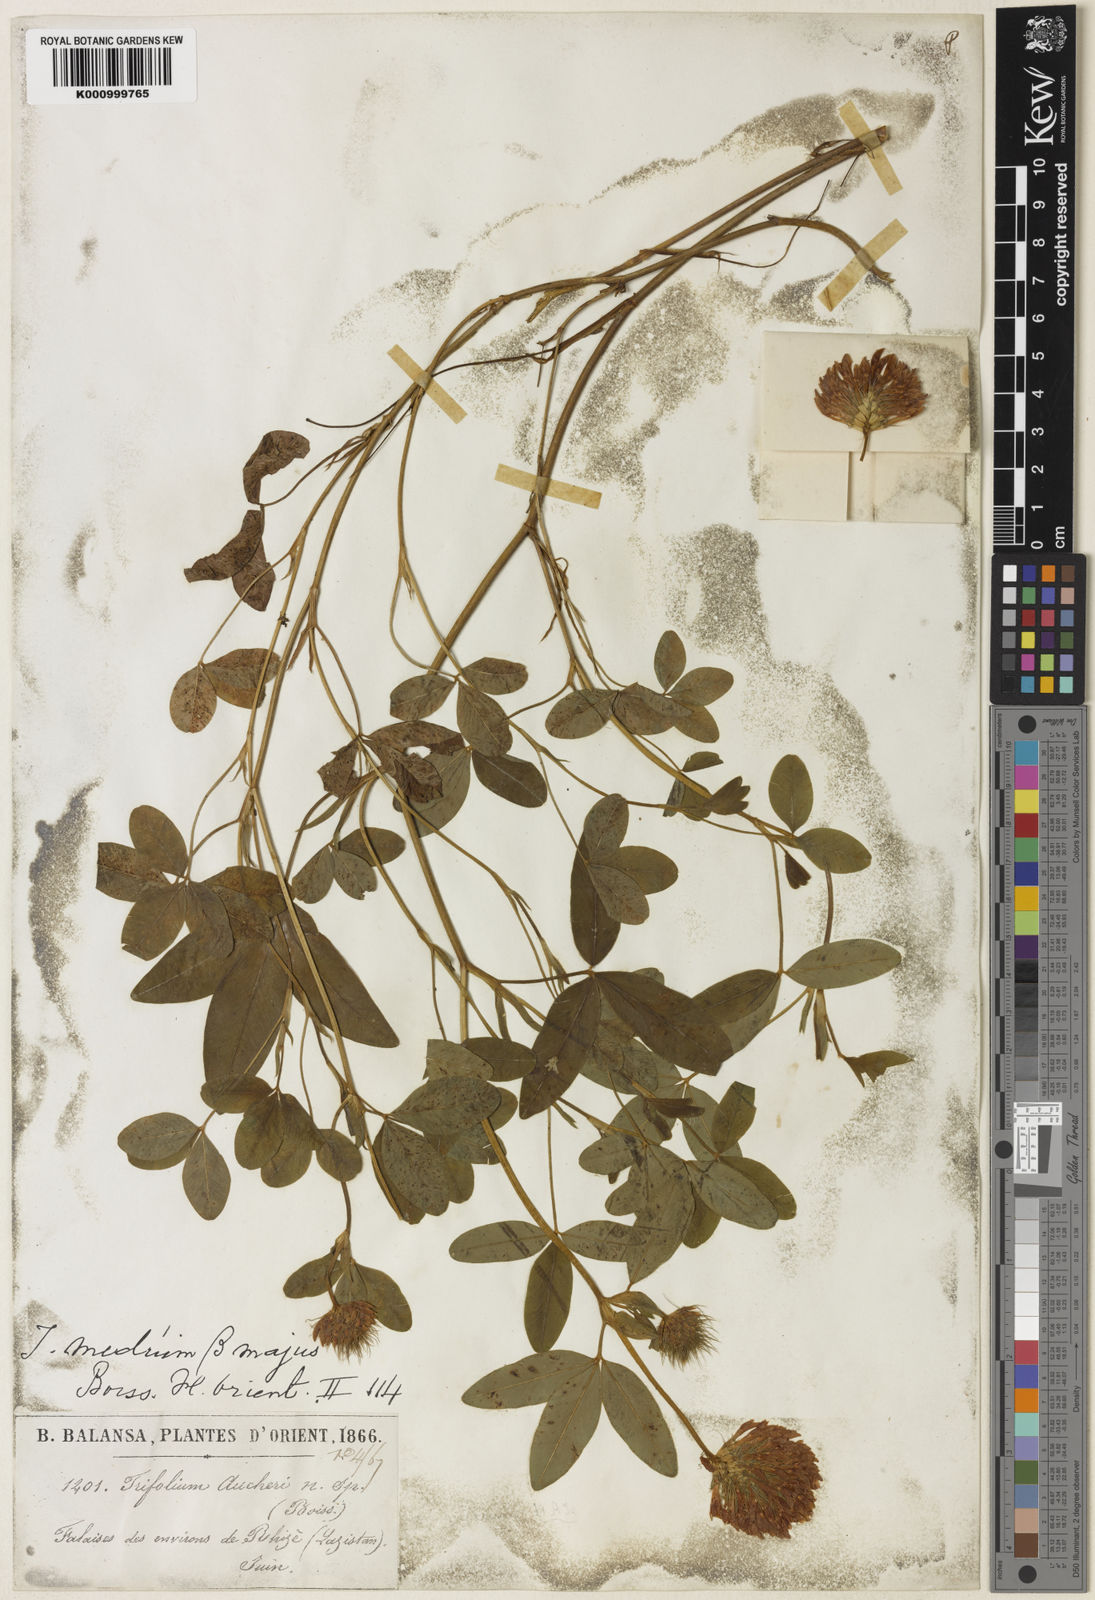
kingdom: Plantae
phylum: Tracheophyta
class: Magnoliopsida
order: Fabales
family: Fabaceae
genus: Trifolium
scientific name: Trifolium medium
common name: Zigzag clover
